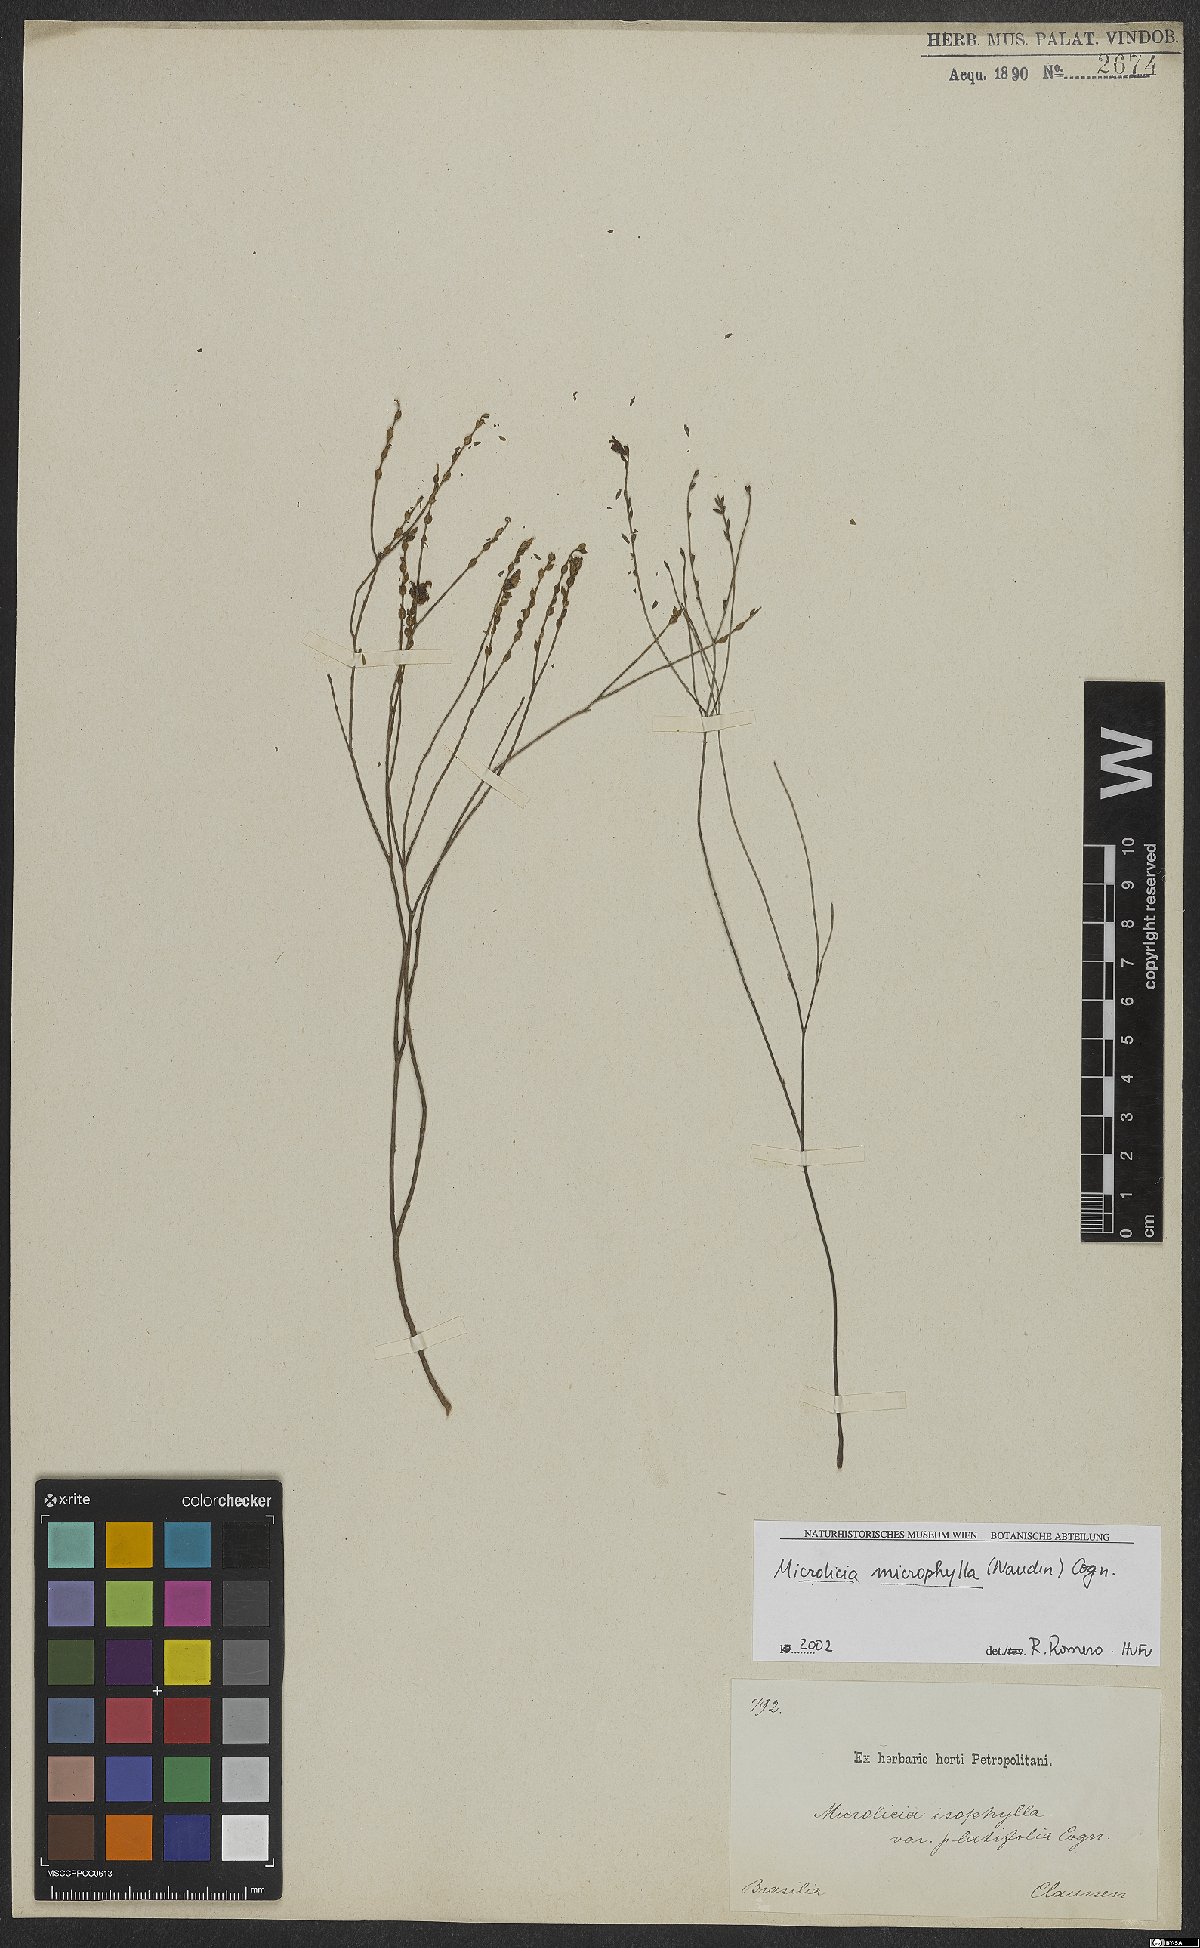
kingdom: Plantae
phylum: Tracheophyta
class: Magnoliopsida
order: Myrtales
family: Melastomataceae
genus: Microlicia
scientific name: Microlicia microphylla
